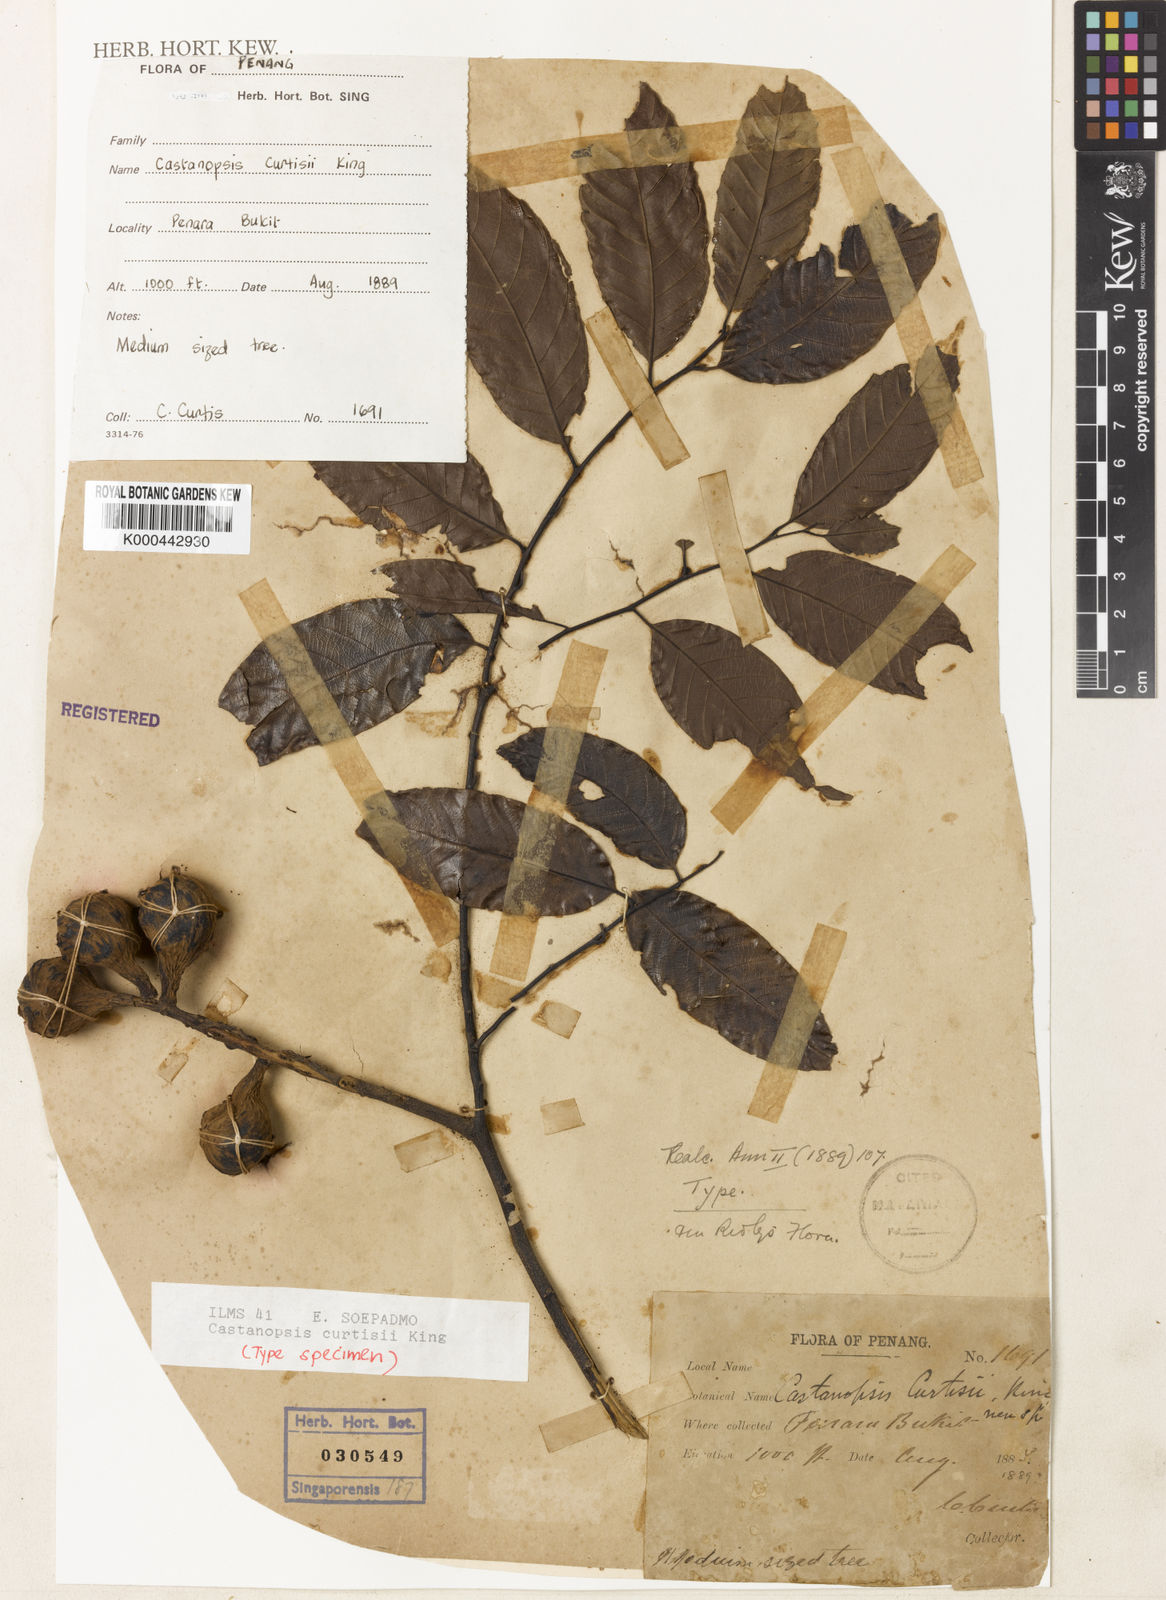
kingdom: Plantae
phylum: Tracheophyta
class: Magnoliopsida
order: Fagales
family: Fagaceae
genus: Castanopsis
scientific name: Castanopsis curtisii
